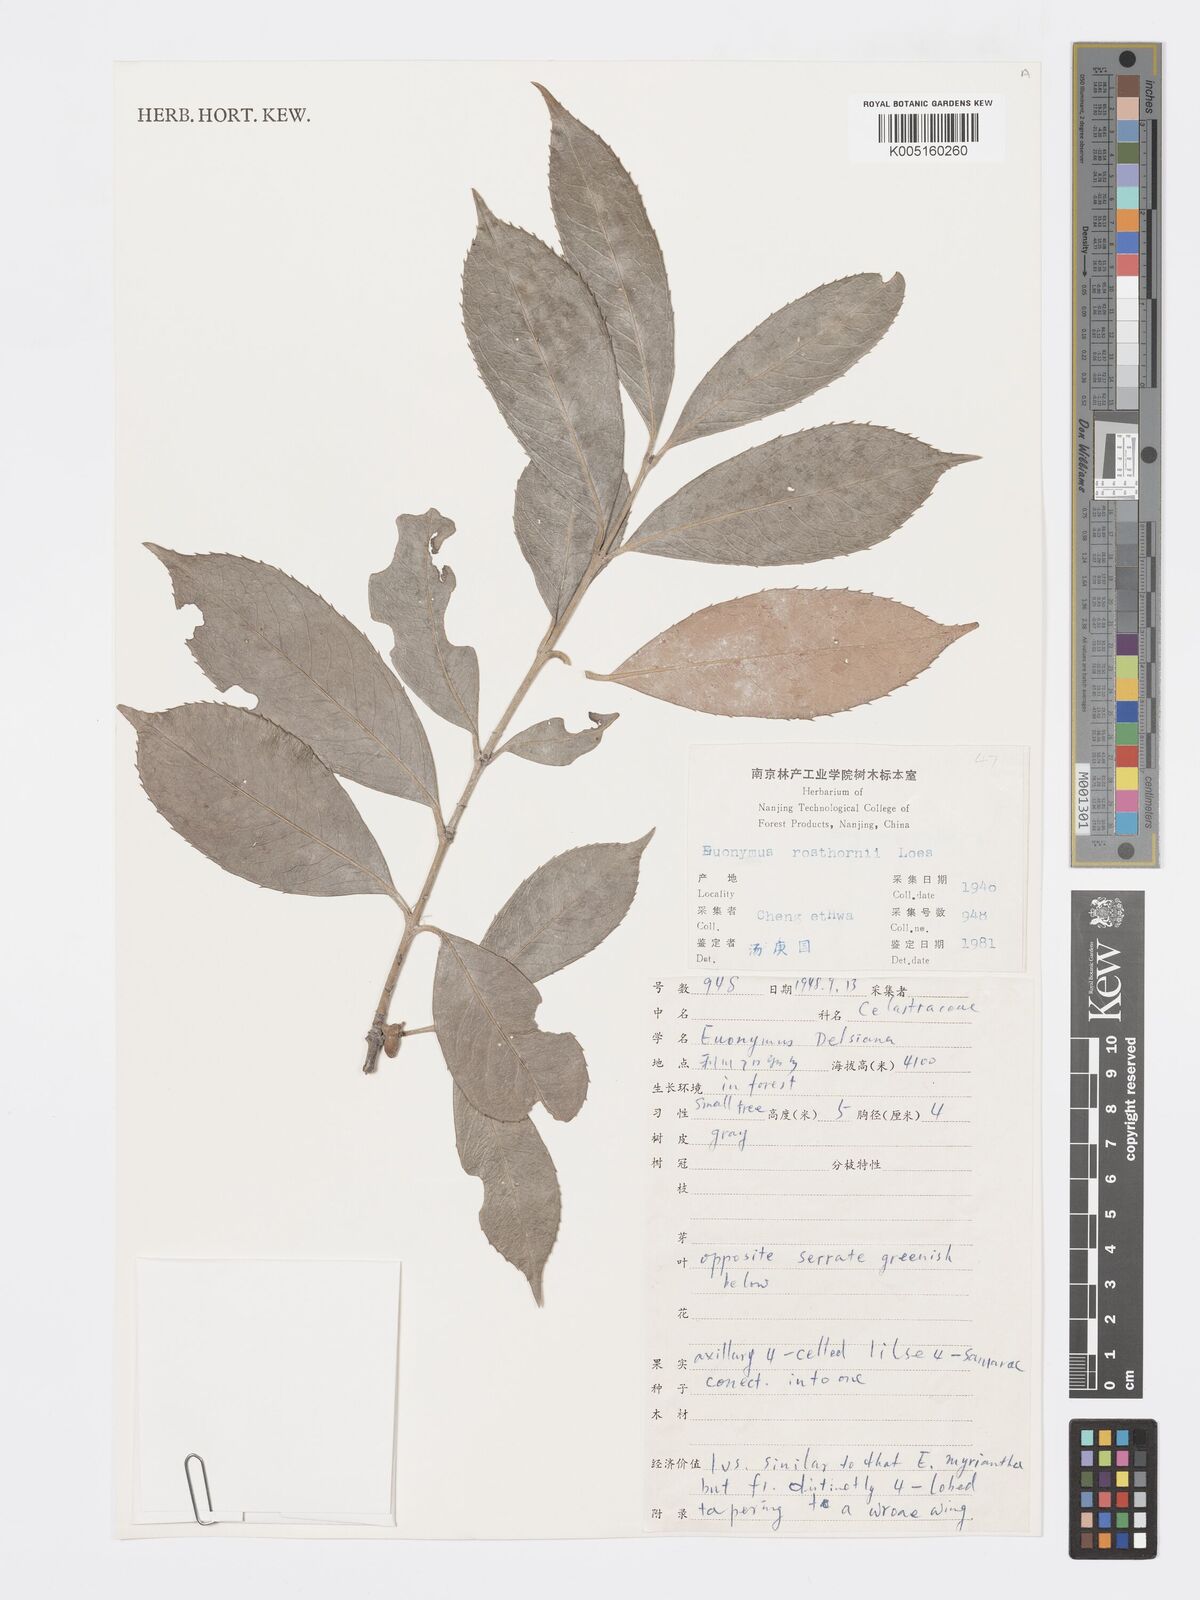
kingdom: Plantae
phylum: Tracheophyta
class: Magnoliopsida
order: Celastrales
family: Celastraceae
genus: Euonymus
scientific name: Euonymus macropterus
